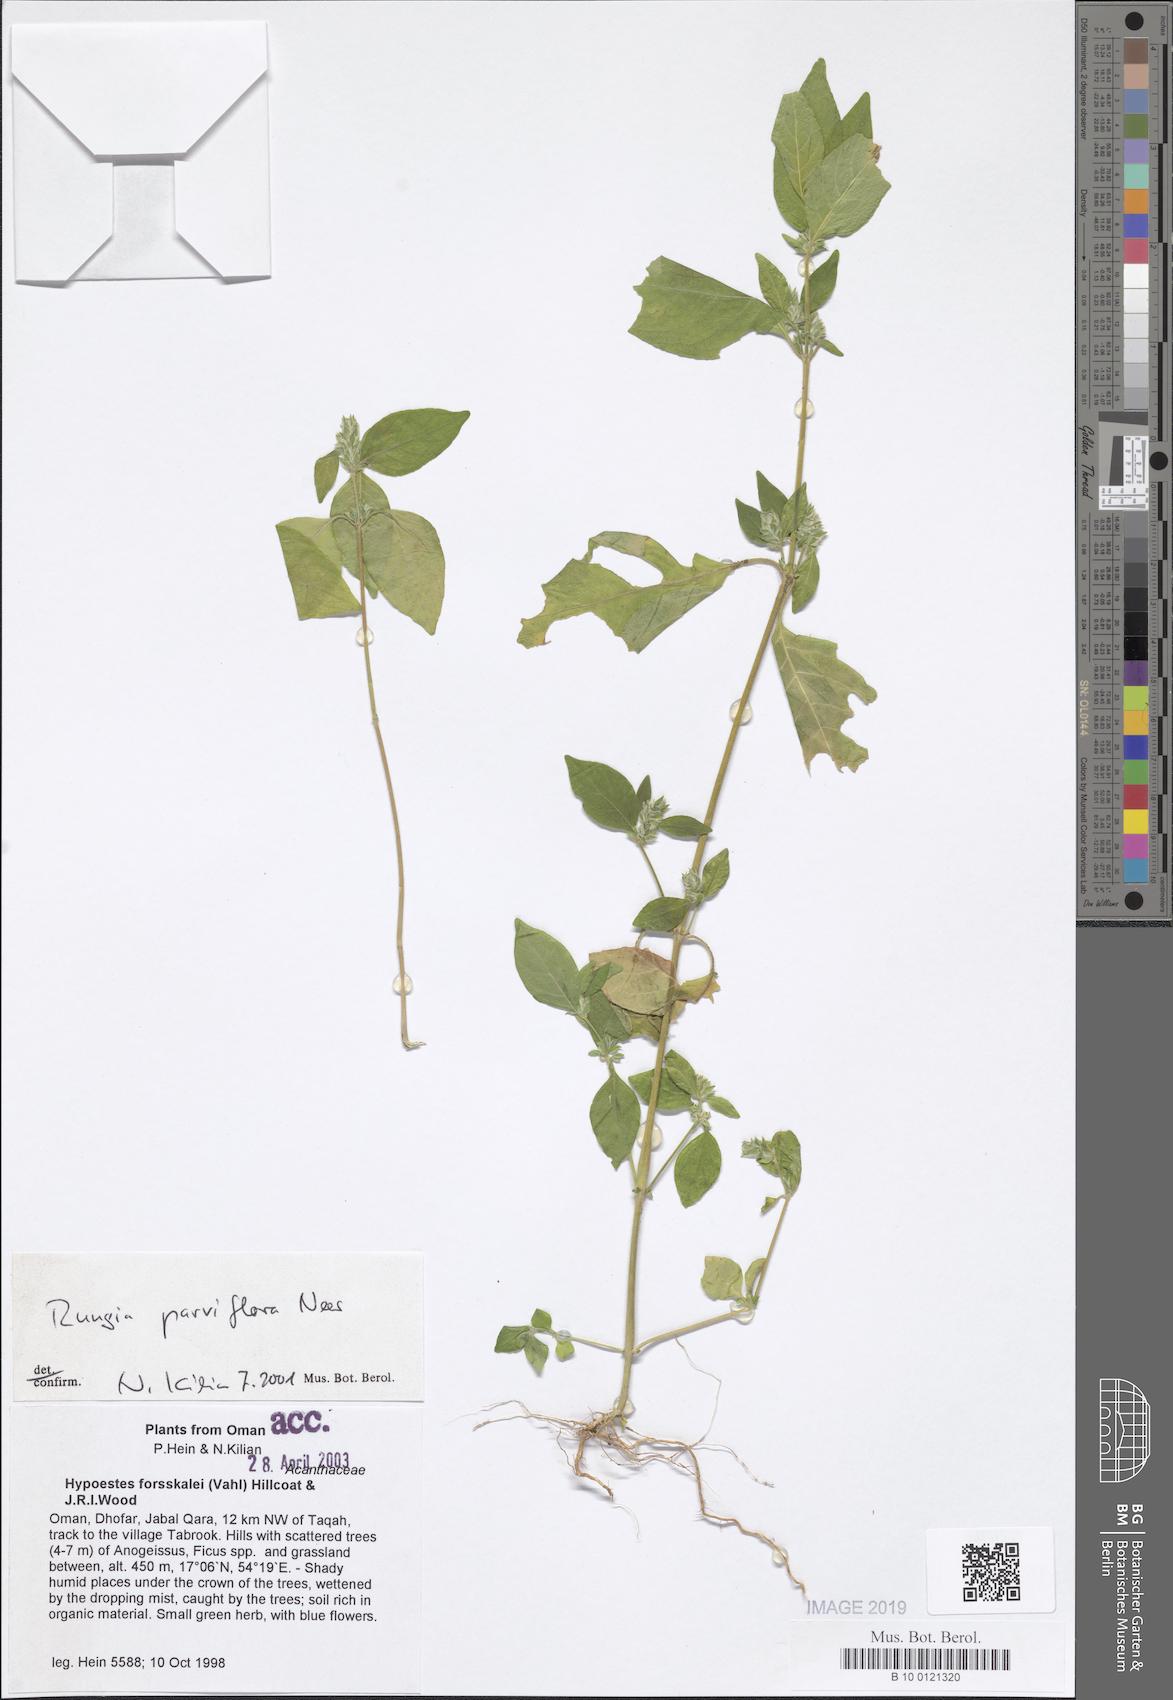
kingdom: Plantae
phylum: Tracheophyta
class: Magnoliopsida
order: Lamiales
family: Acanthaceae
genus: Rungia
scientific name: Rungia pectinata
